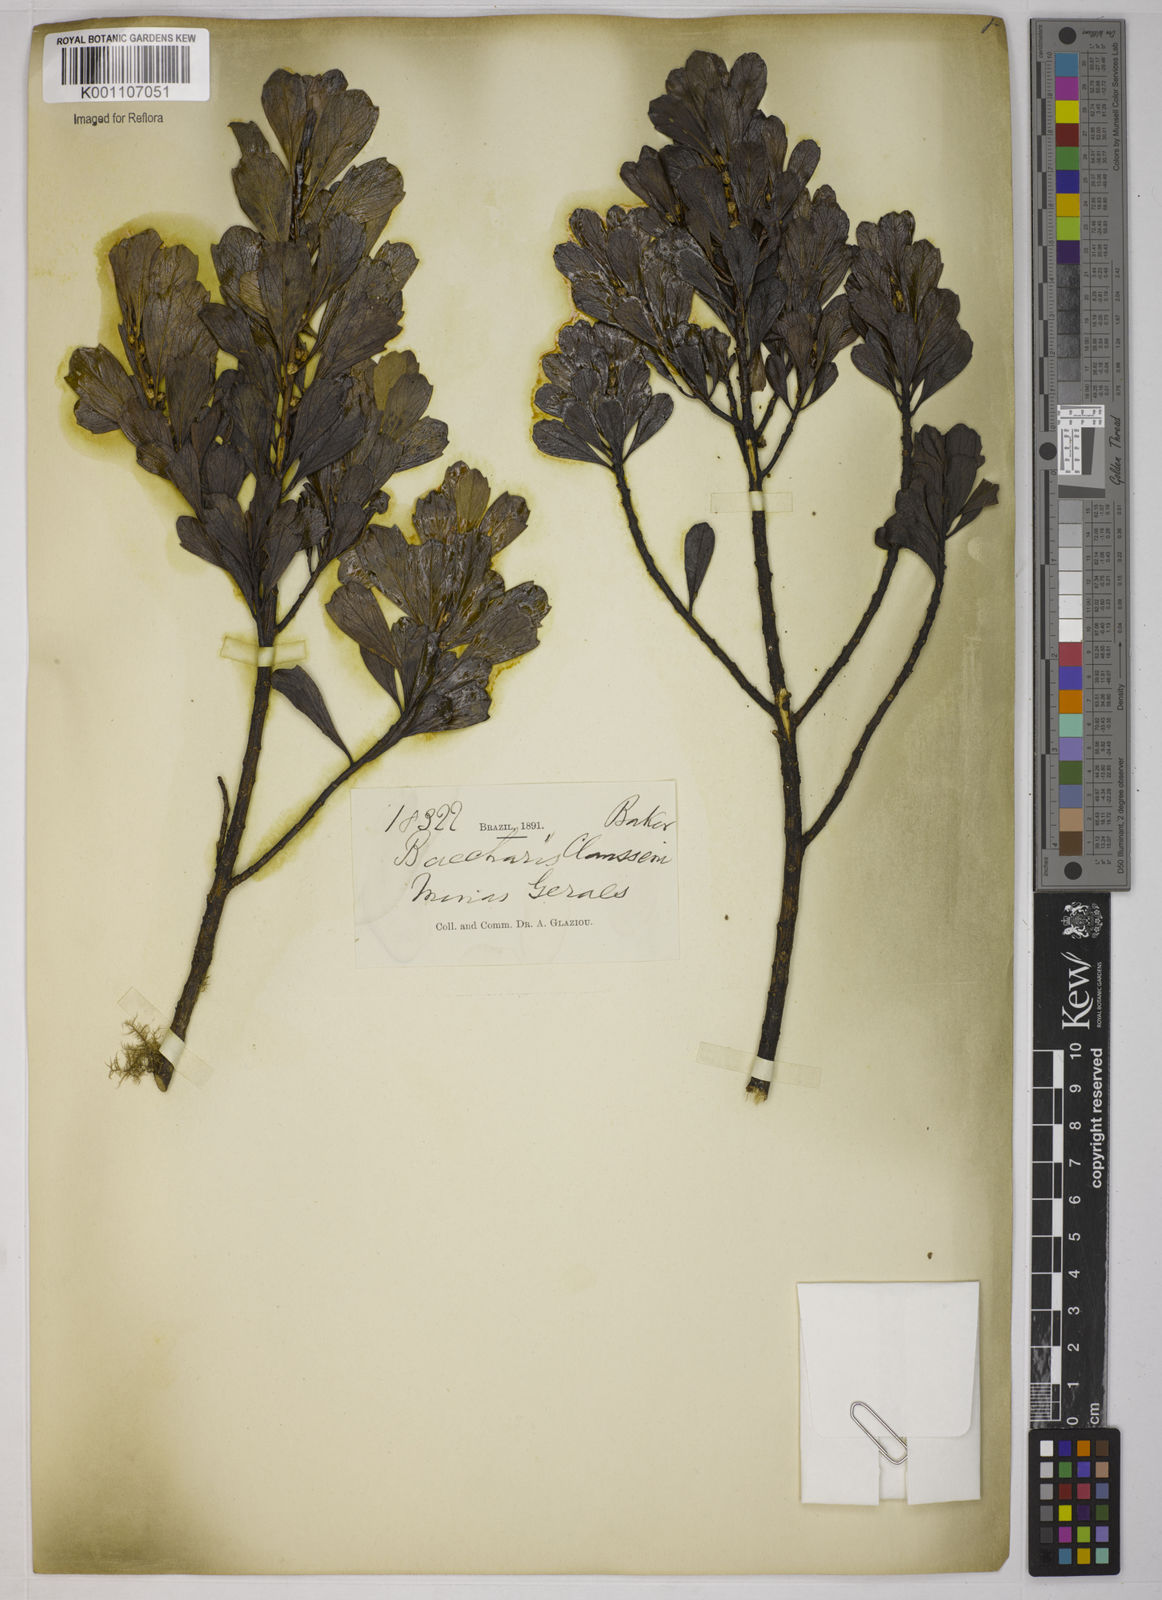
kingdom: Plantae
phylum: Tracheophyta
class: Magnoliopsida
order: Asterales
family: Asteraceae
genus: Baccharis
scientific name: Baccharis
